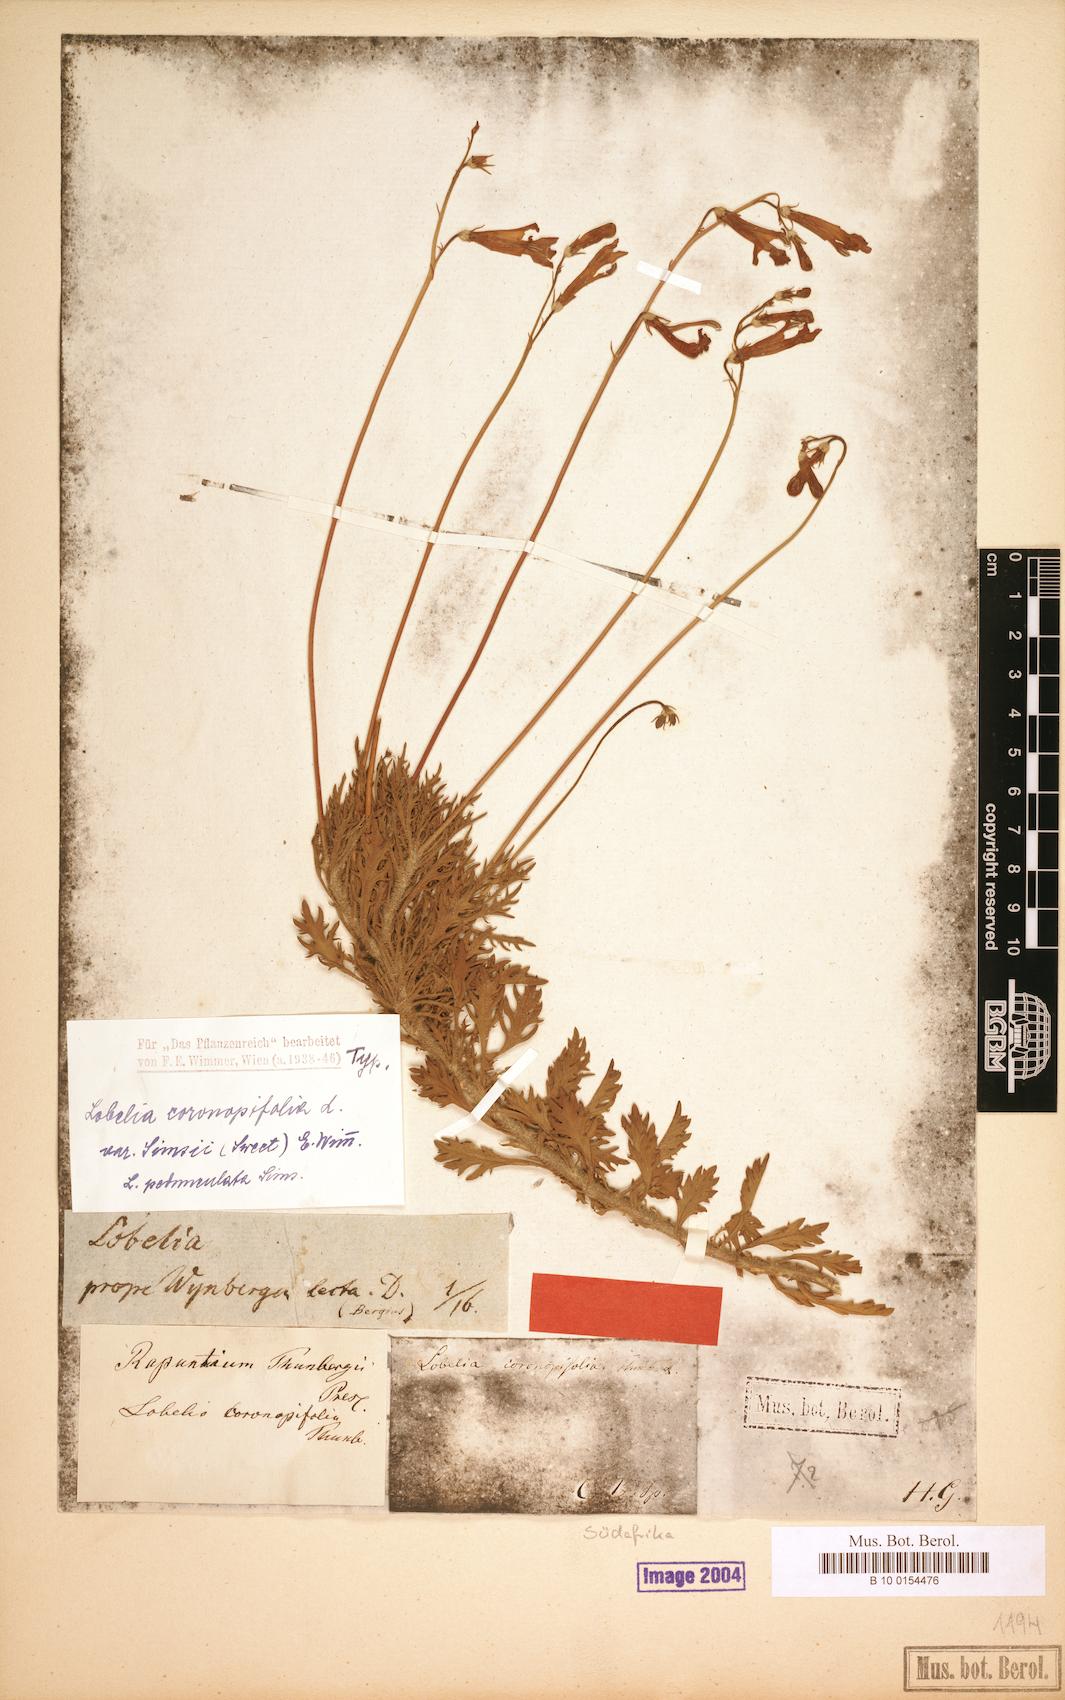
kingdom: Plantae
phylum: Tracheophyta
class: Magnoliopsida
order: Asterales
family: Campanulaceae
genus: Lobelia
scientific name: Lobelia coronopifolia
